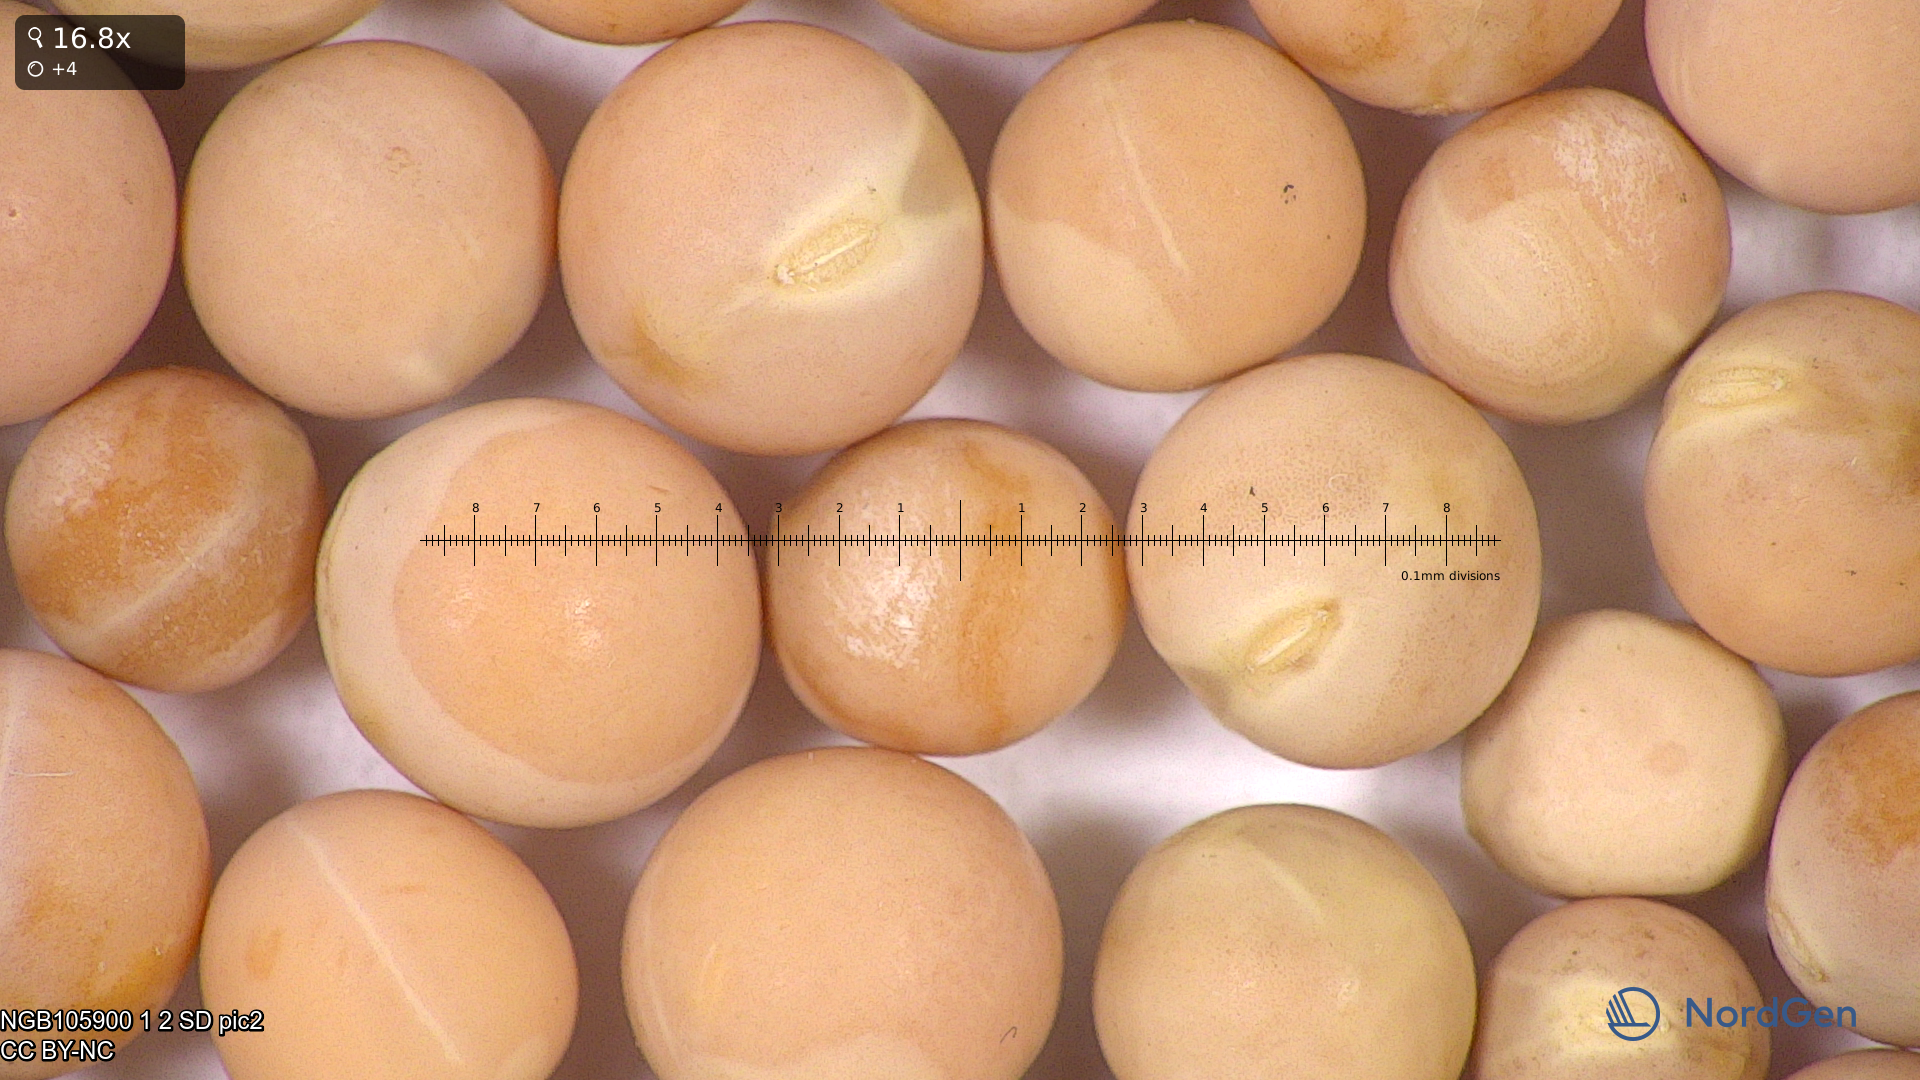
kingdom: Plantae
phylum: Tracheophyta
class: Magnoliopsida
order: Fabales
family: Fabaceae
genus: Lathyrus
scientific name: Lathyrus oleraceus
